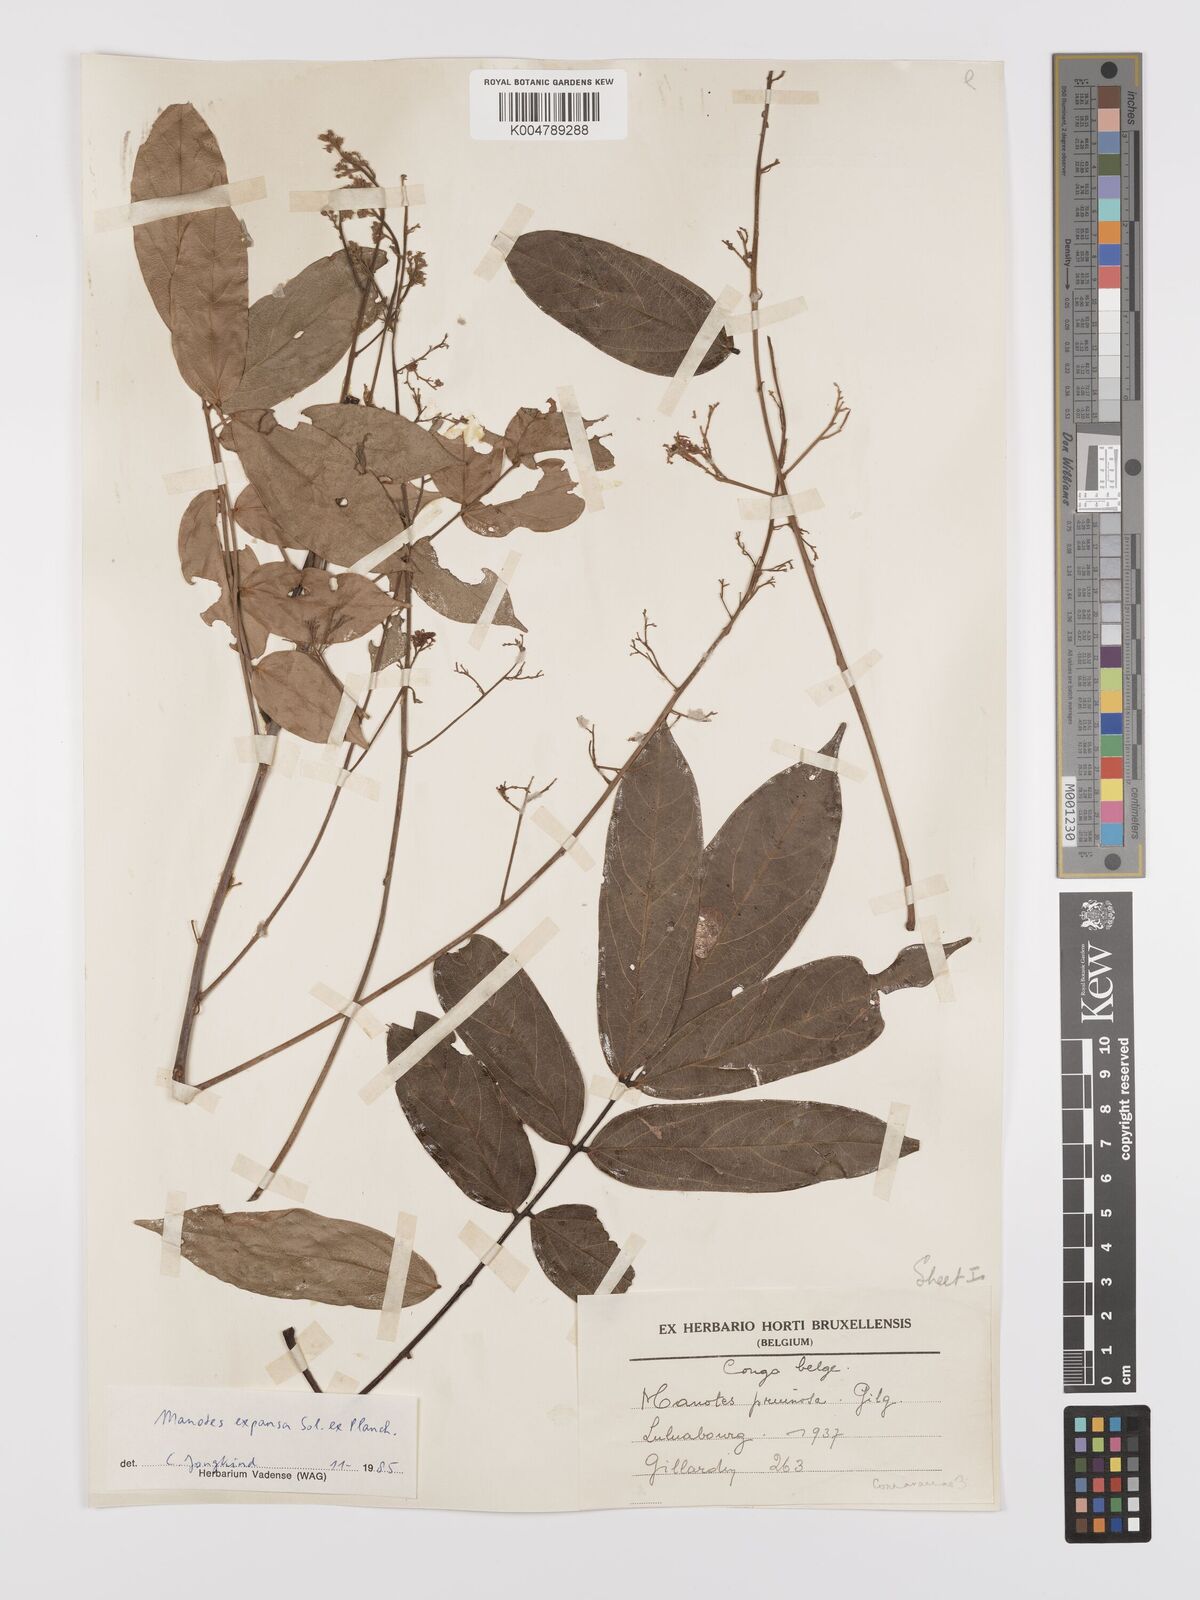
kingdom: Plantae
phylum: Tracheophyta
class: Magnoliopsida
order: Oxalidales
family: Connaraceae
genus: Manotes
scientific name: Manotes expansa
